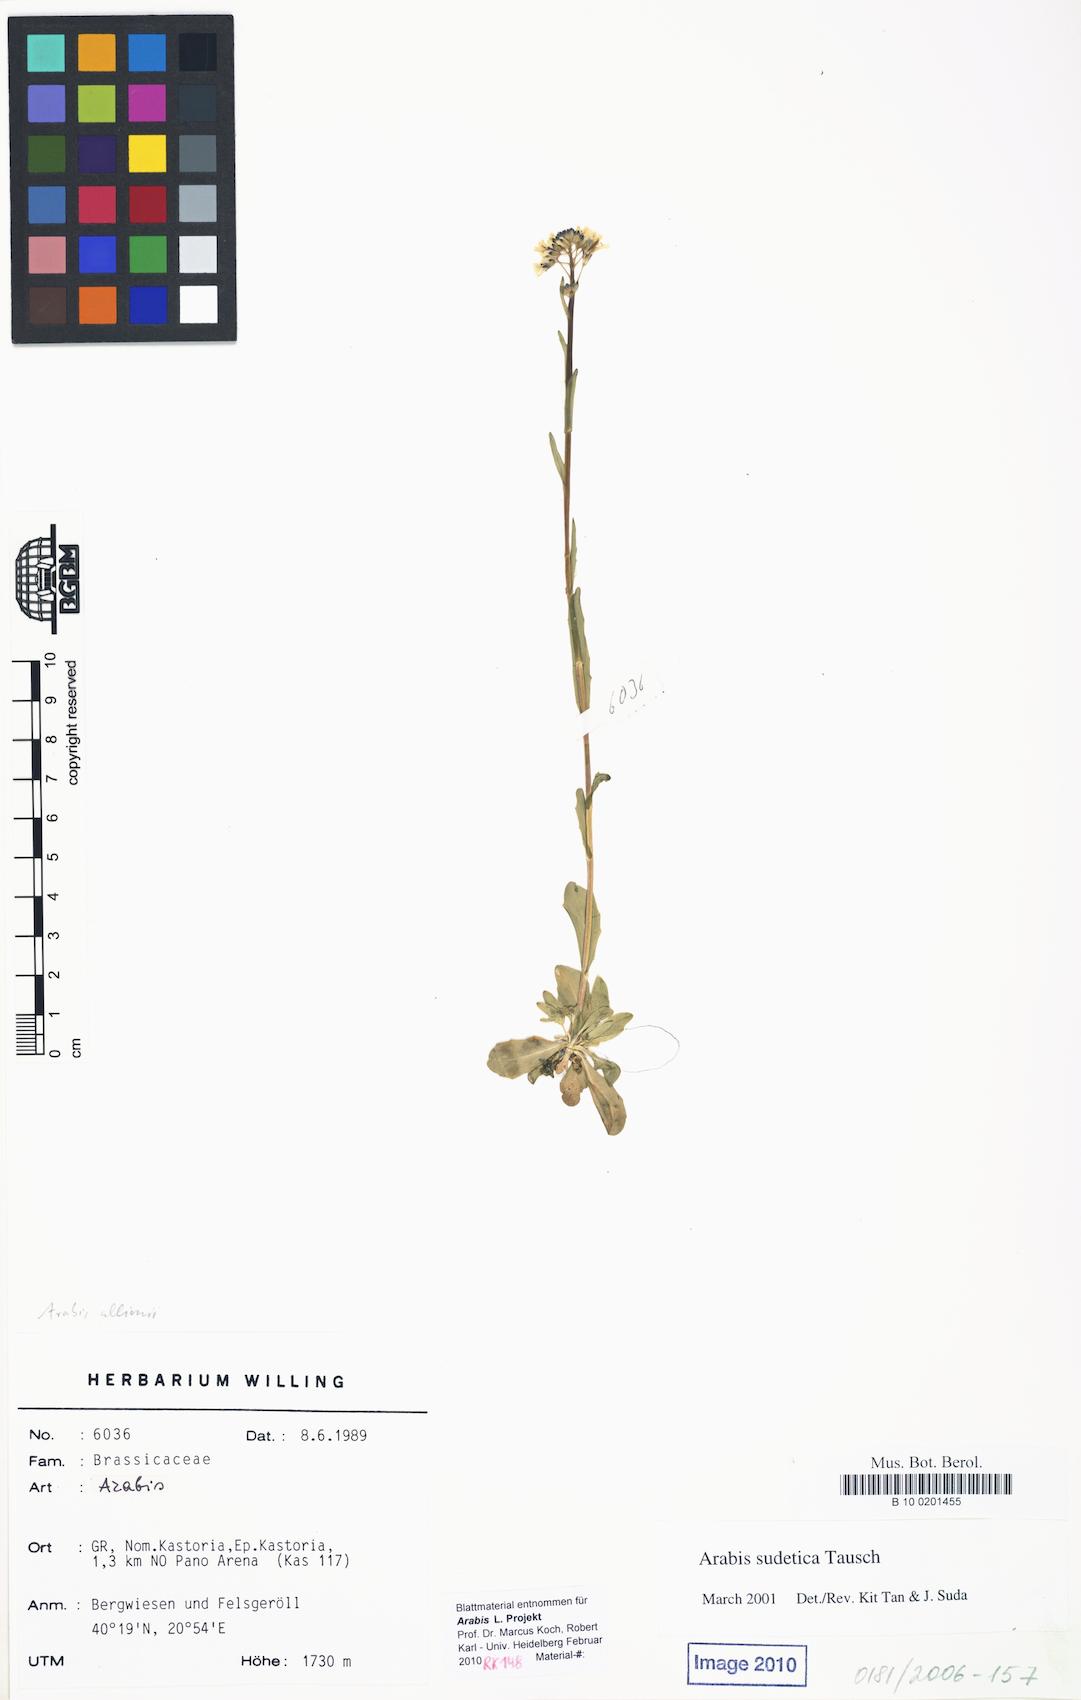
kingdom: Plantae
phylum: Tracheophyta
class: Magnoliopsida
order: Brassicales
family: Brassicaceae
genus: Arabis
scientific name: Arabis
